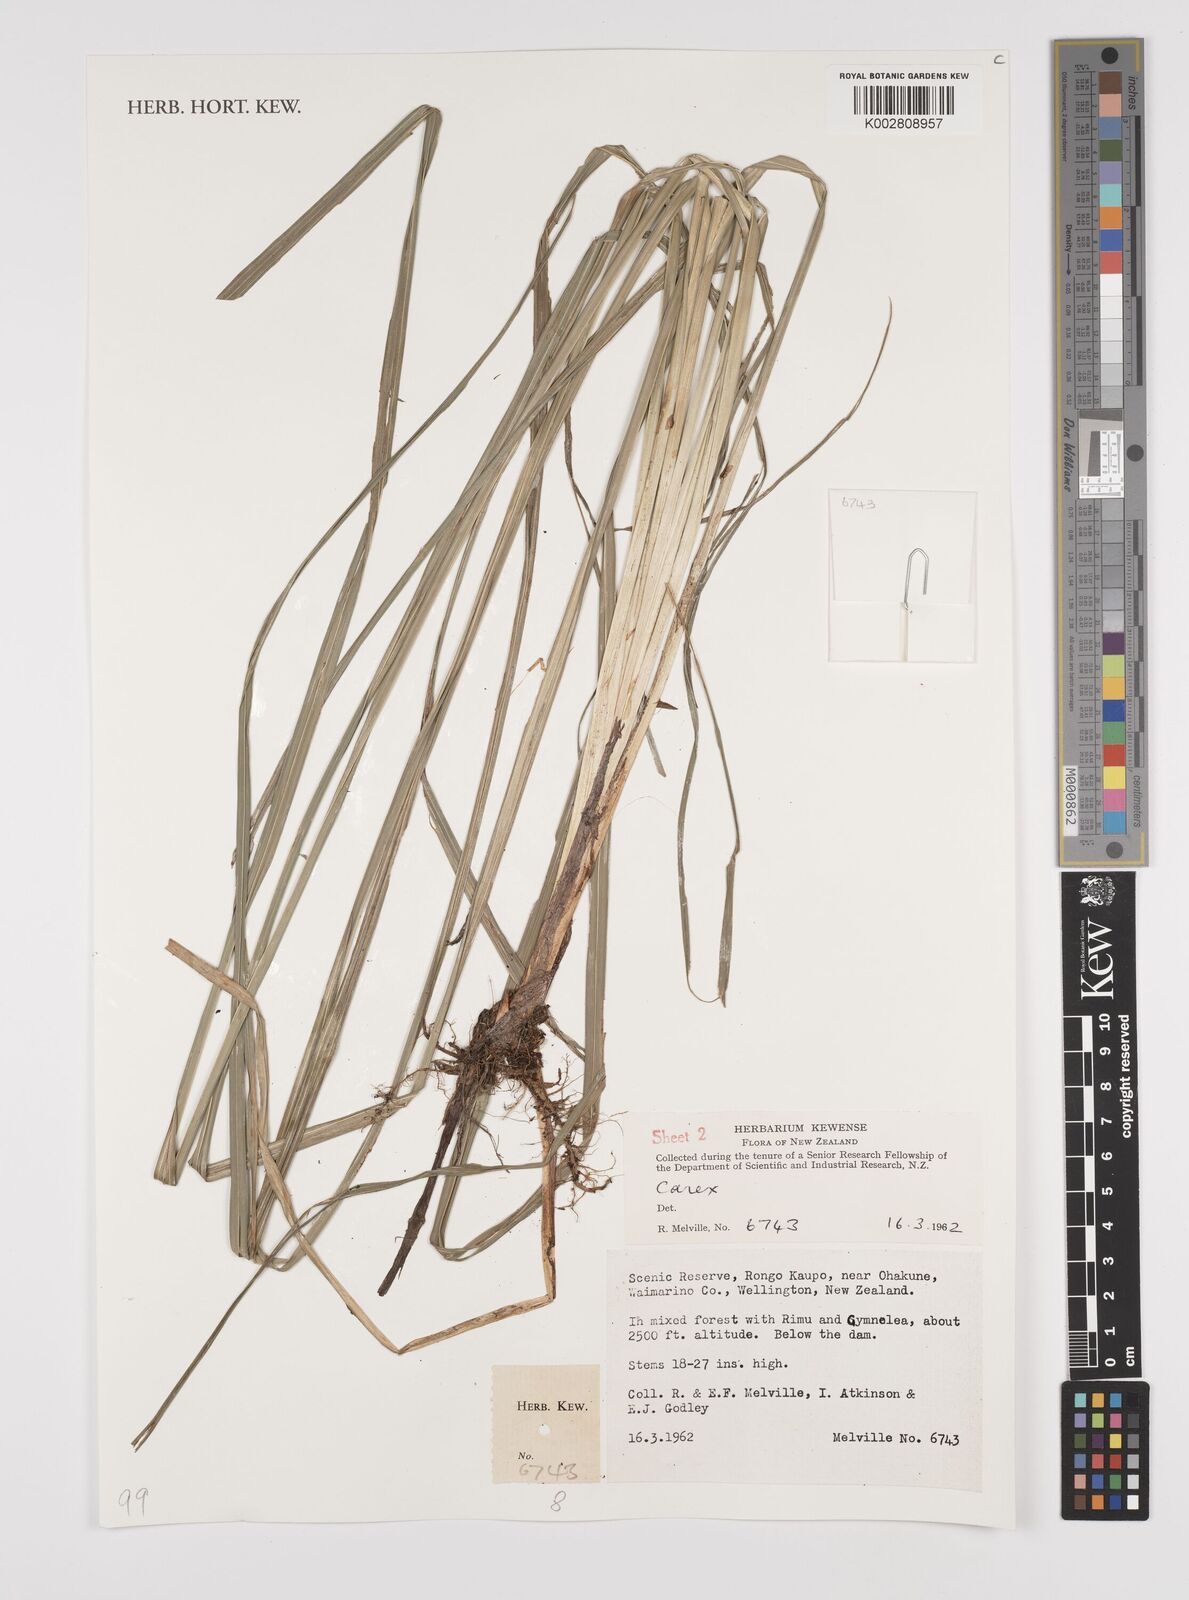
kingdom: Plantae
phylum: Tracheophyta
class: Liliopsida
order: Poales
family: Cyperaceae
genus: Carex
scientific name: Carex
